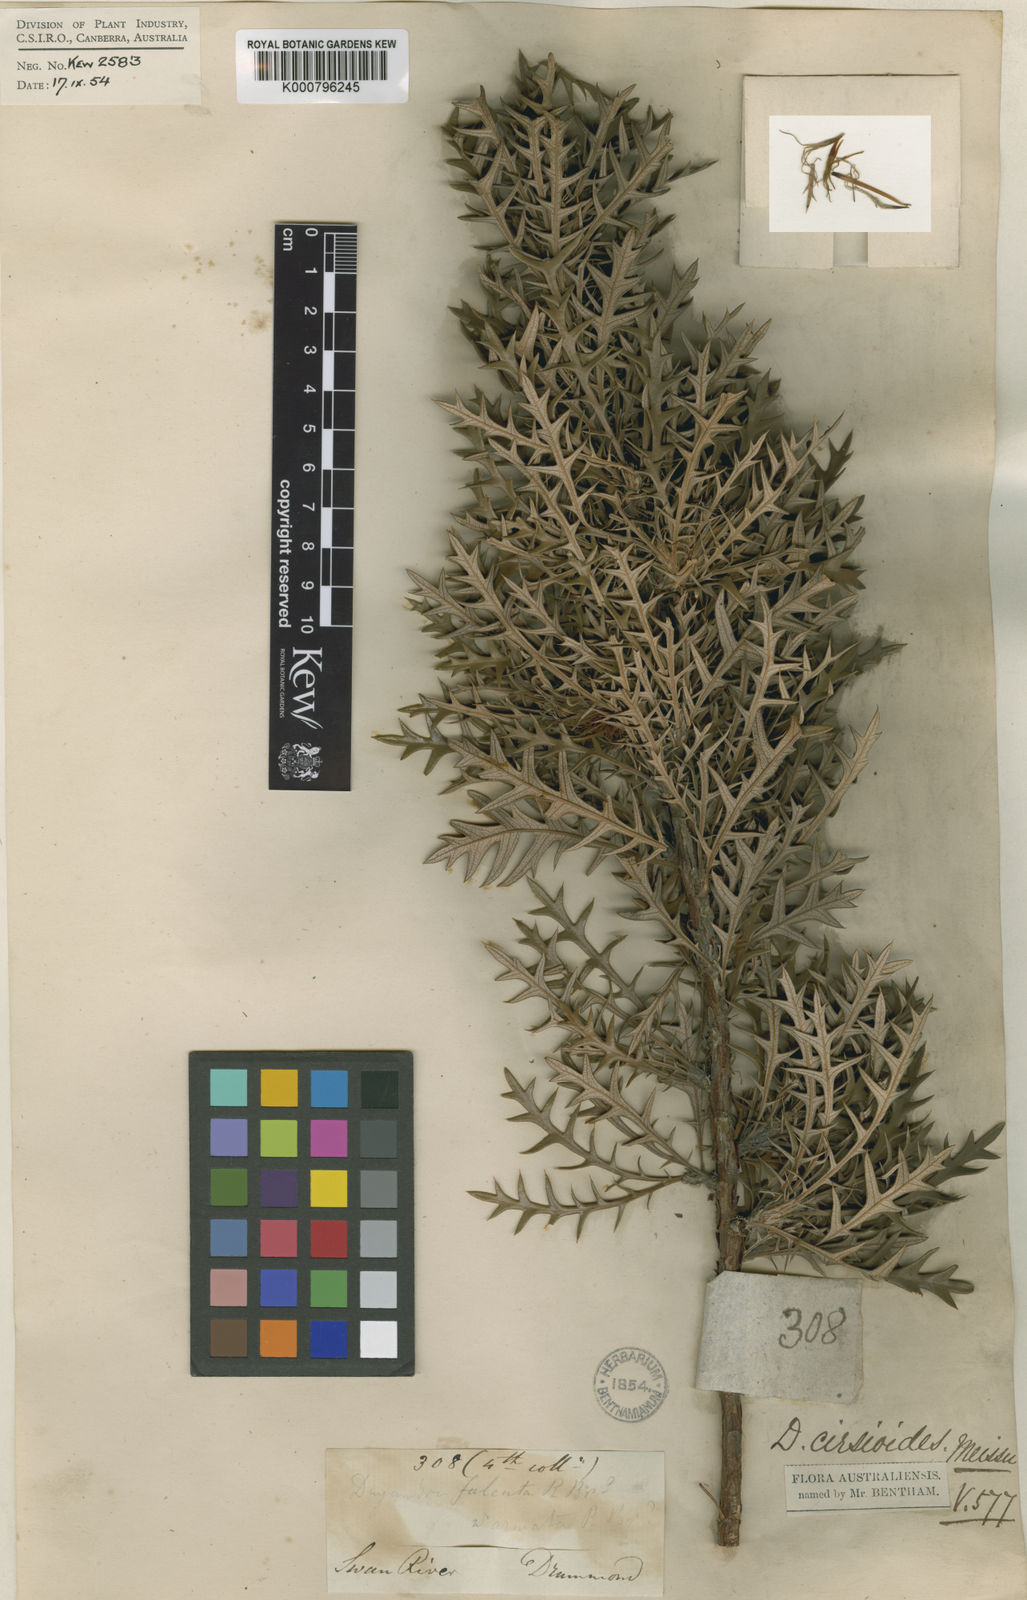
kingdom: Plantae
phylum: Tracheophyta
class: Magnoliopsida
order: Proteales
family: Proteaceae
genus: Banksia
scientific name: Banksia cirsioides
